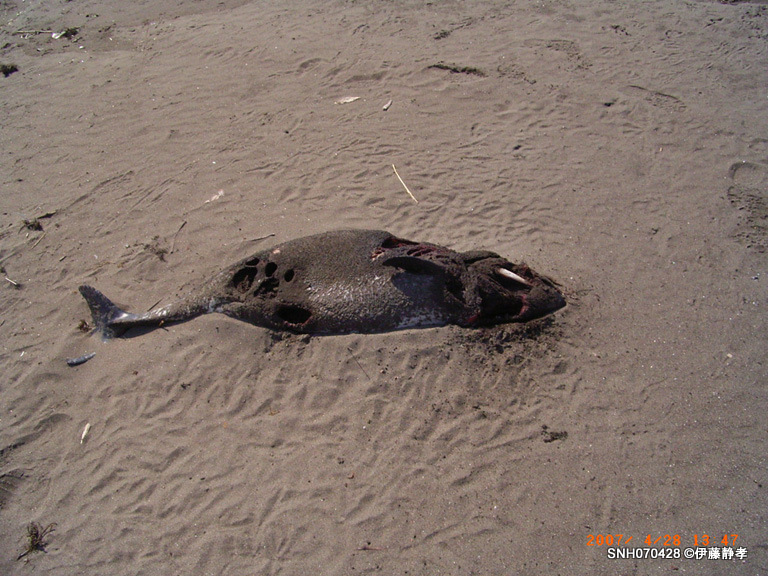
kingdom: Animalia
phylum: Chordata
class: Mammalia
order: Cetacea
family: Phocoenidae
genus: Phocoena
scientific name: Phocoena phocoena
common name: Harbour porpoise
